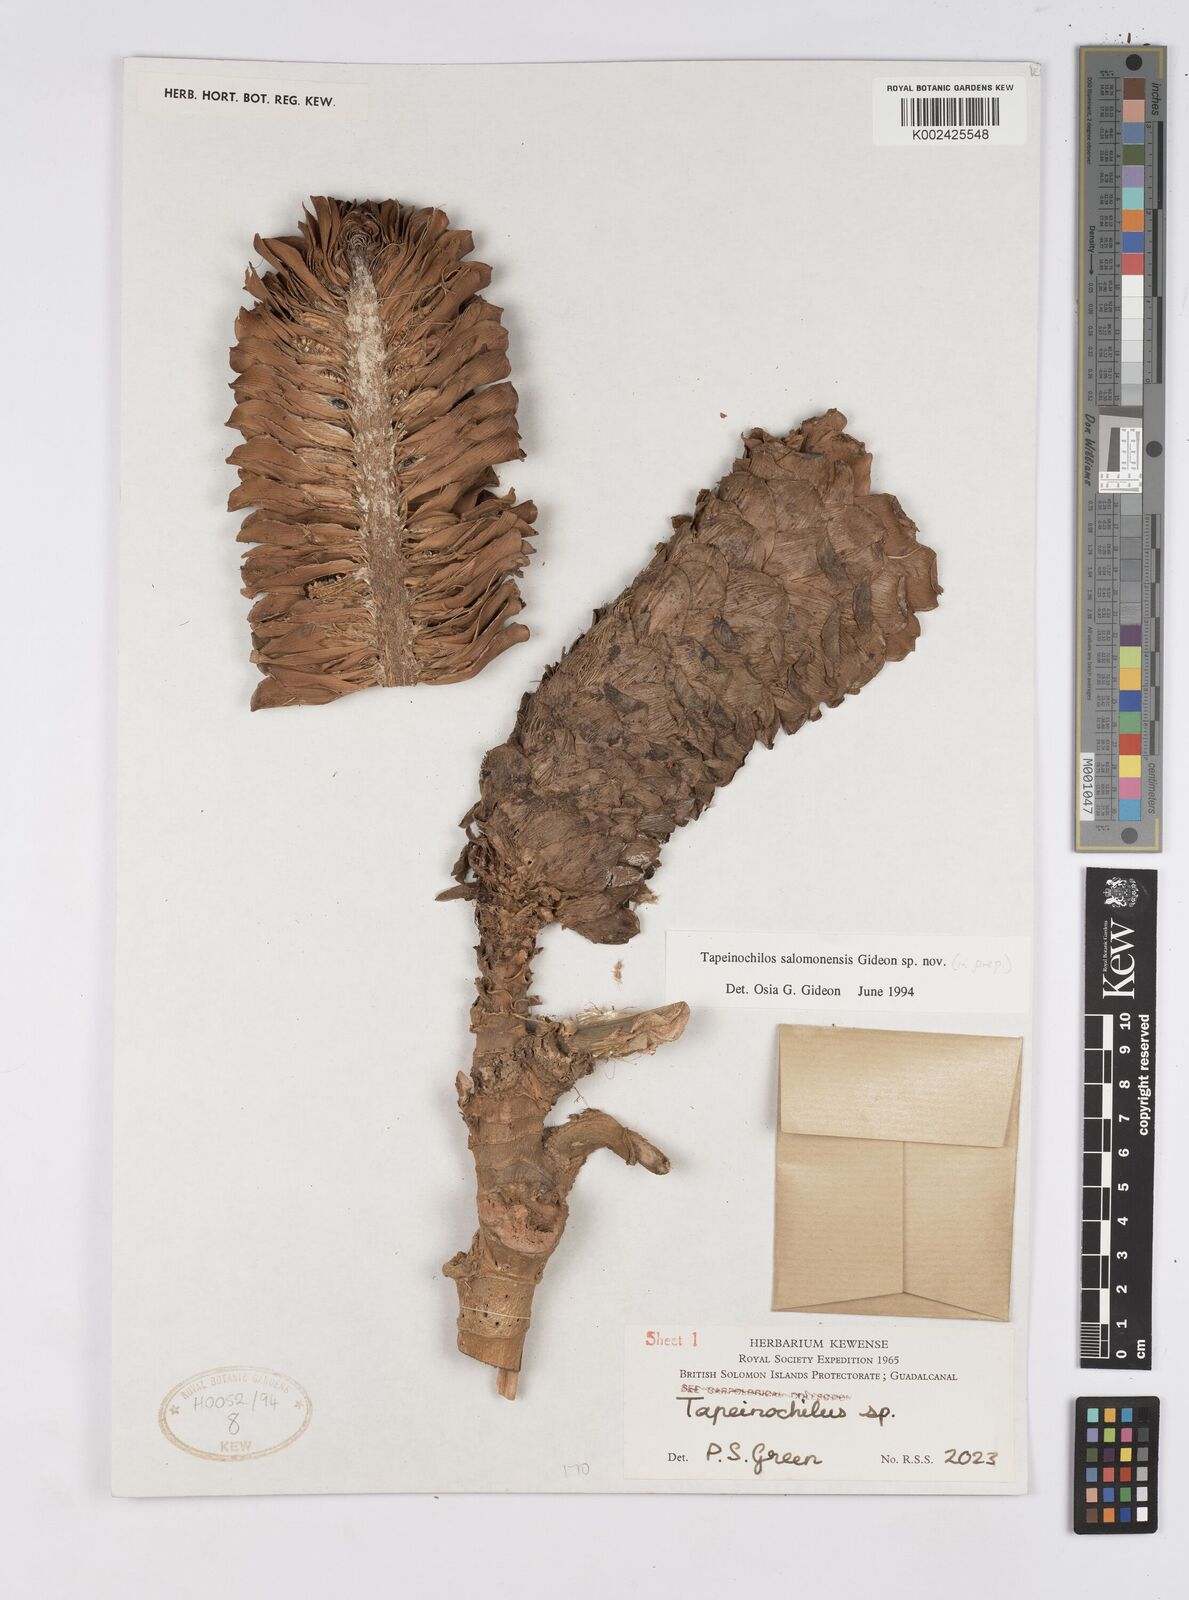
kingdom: Plantae
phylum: Tracheophyta
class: Liliopsida
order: Zingiberales
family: Costaceae
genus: Tapeinochilos
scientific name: Tapeinochilos
